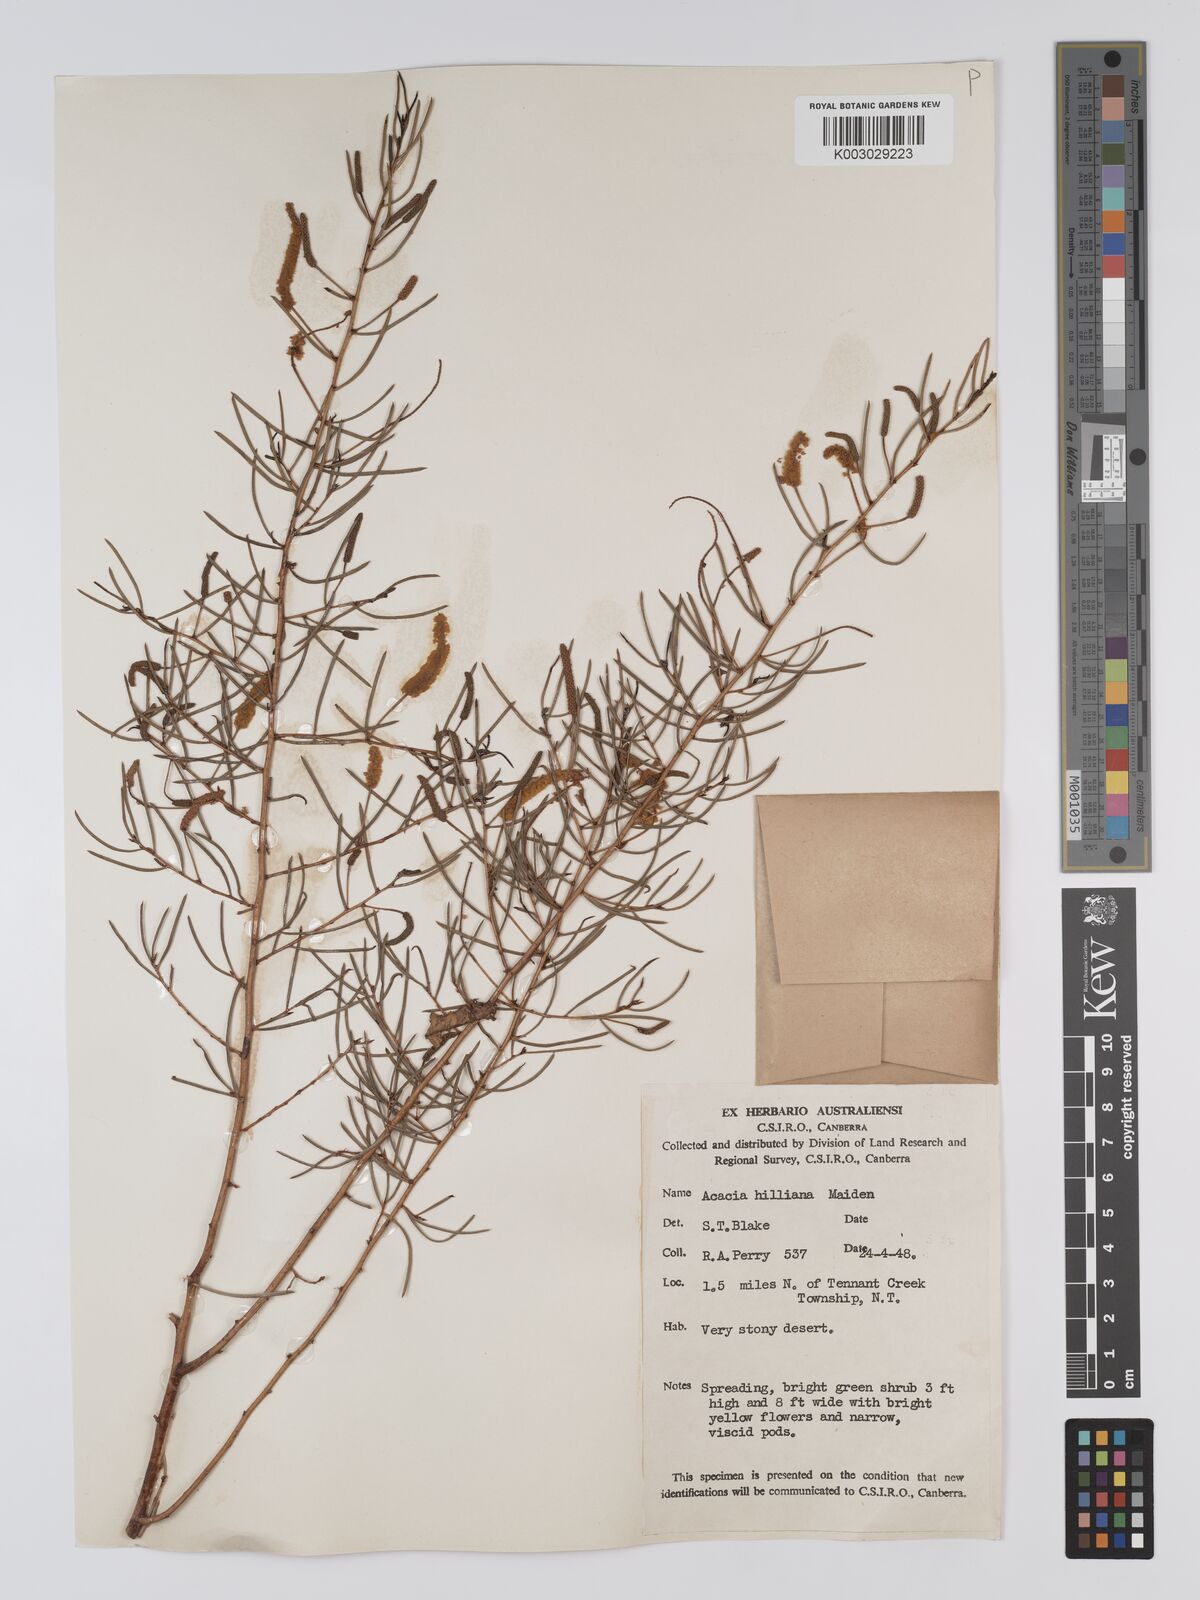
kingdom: Plantae
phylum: Tracheophyta
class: Magnoliopsida
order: Fabales
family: Fabaceae
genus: Acacia
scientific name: Acacia hilliana
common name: Hill's tabletop wattle
